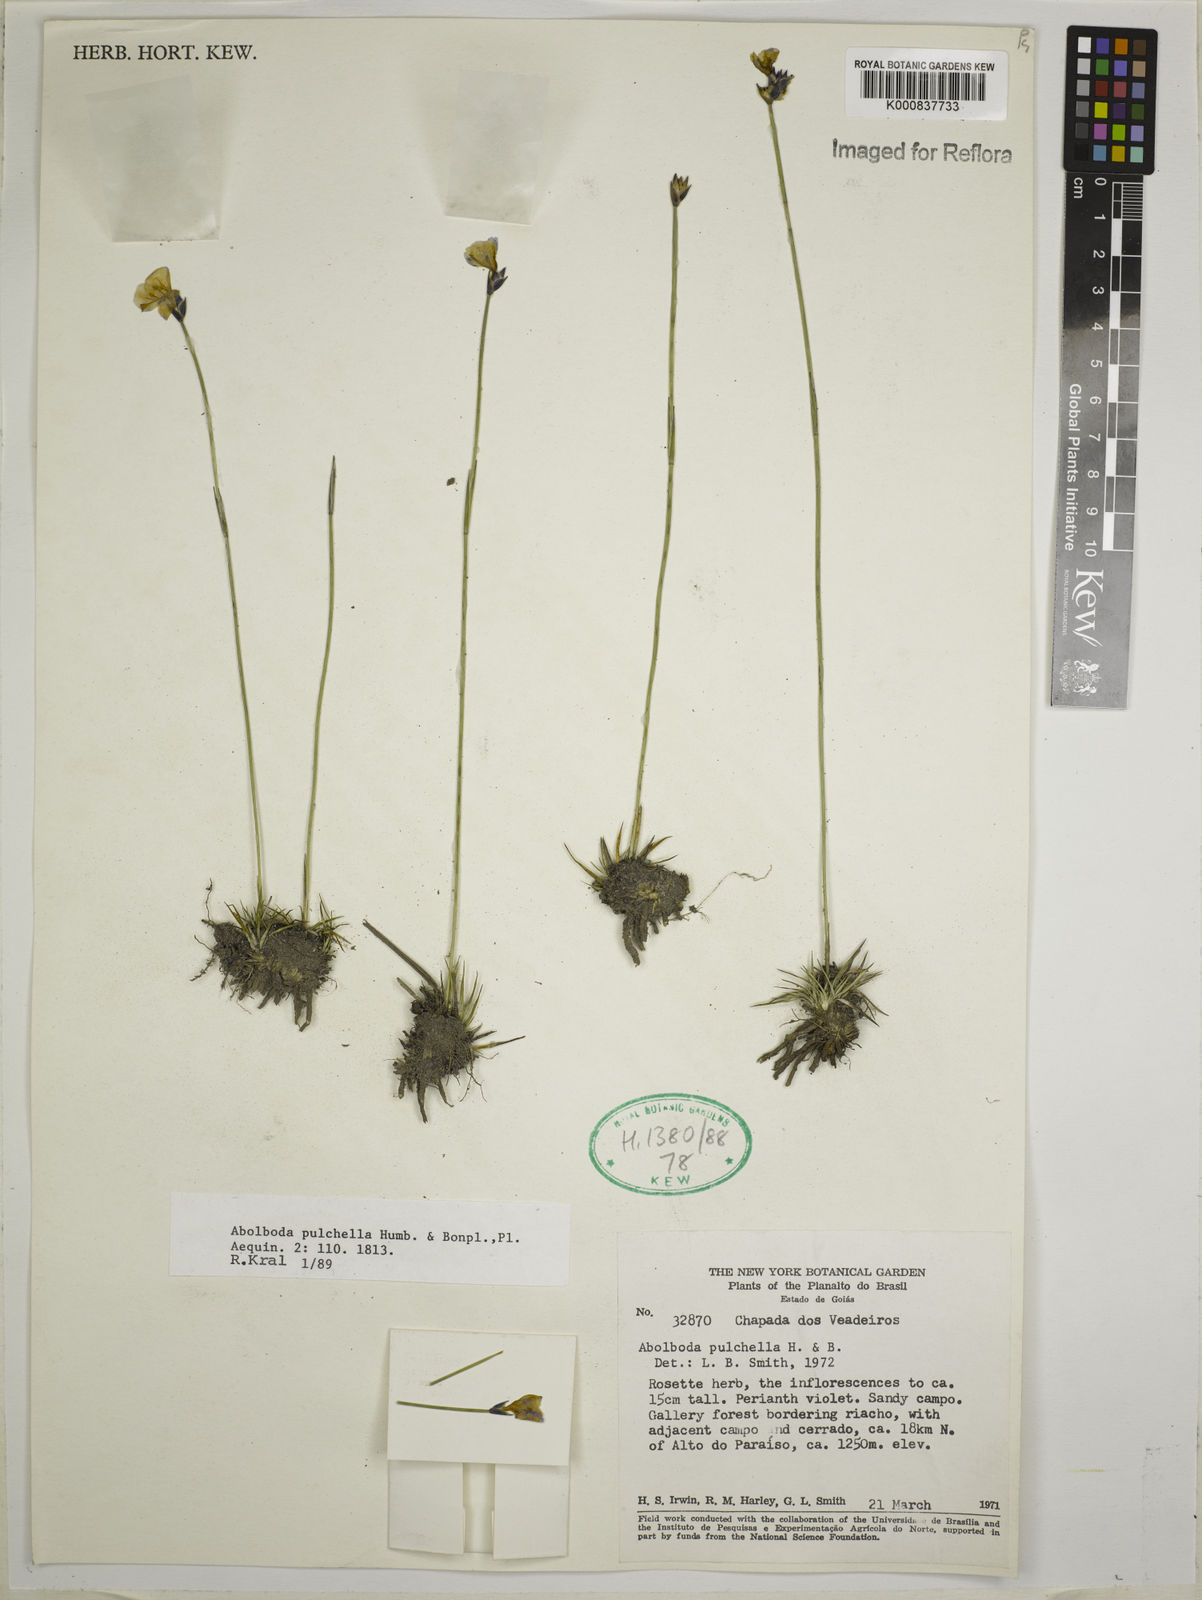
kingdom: Plantae
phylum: Tracheophyta
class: Liliopsida
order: Poales
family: Xyridaceae
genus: Abolboda
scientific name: Abolboda pulchella
